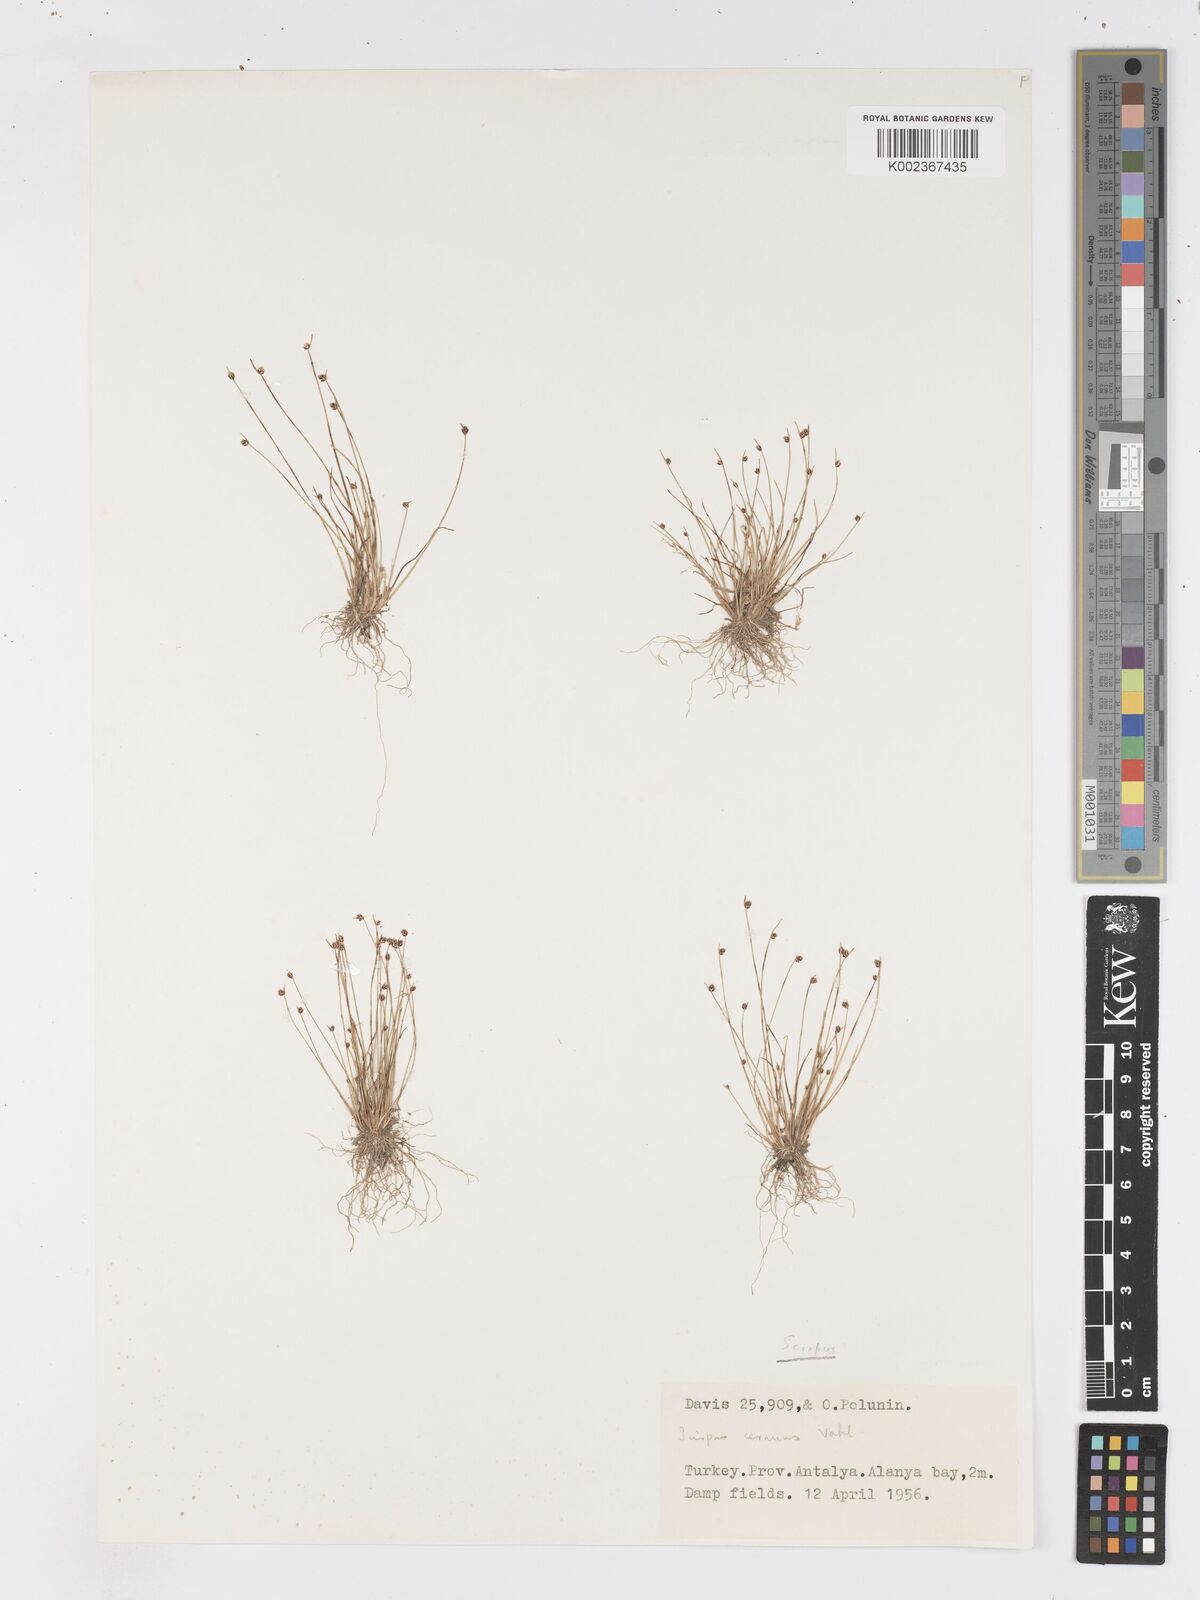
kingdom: Plantae
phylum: Tracheophyta
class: Liliopsida
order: Poales
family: Cyperaceae
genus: Isolepis
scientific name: Isolepis cernua
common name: Slender club-rush
